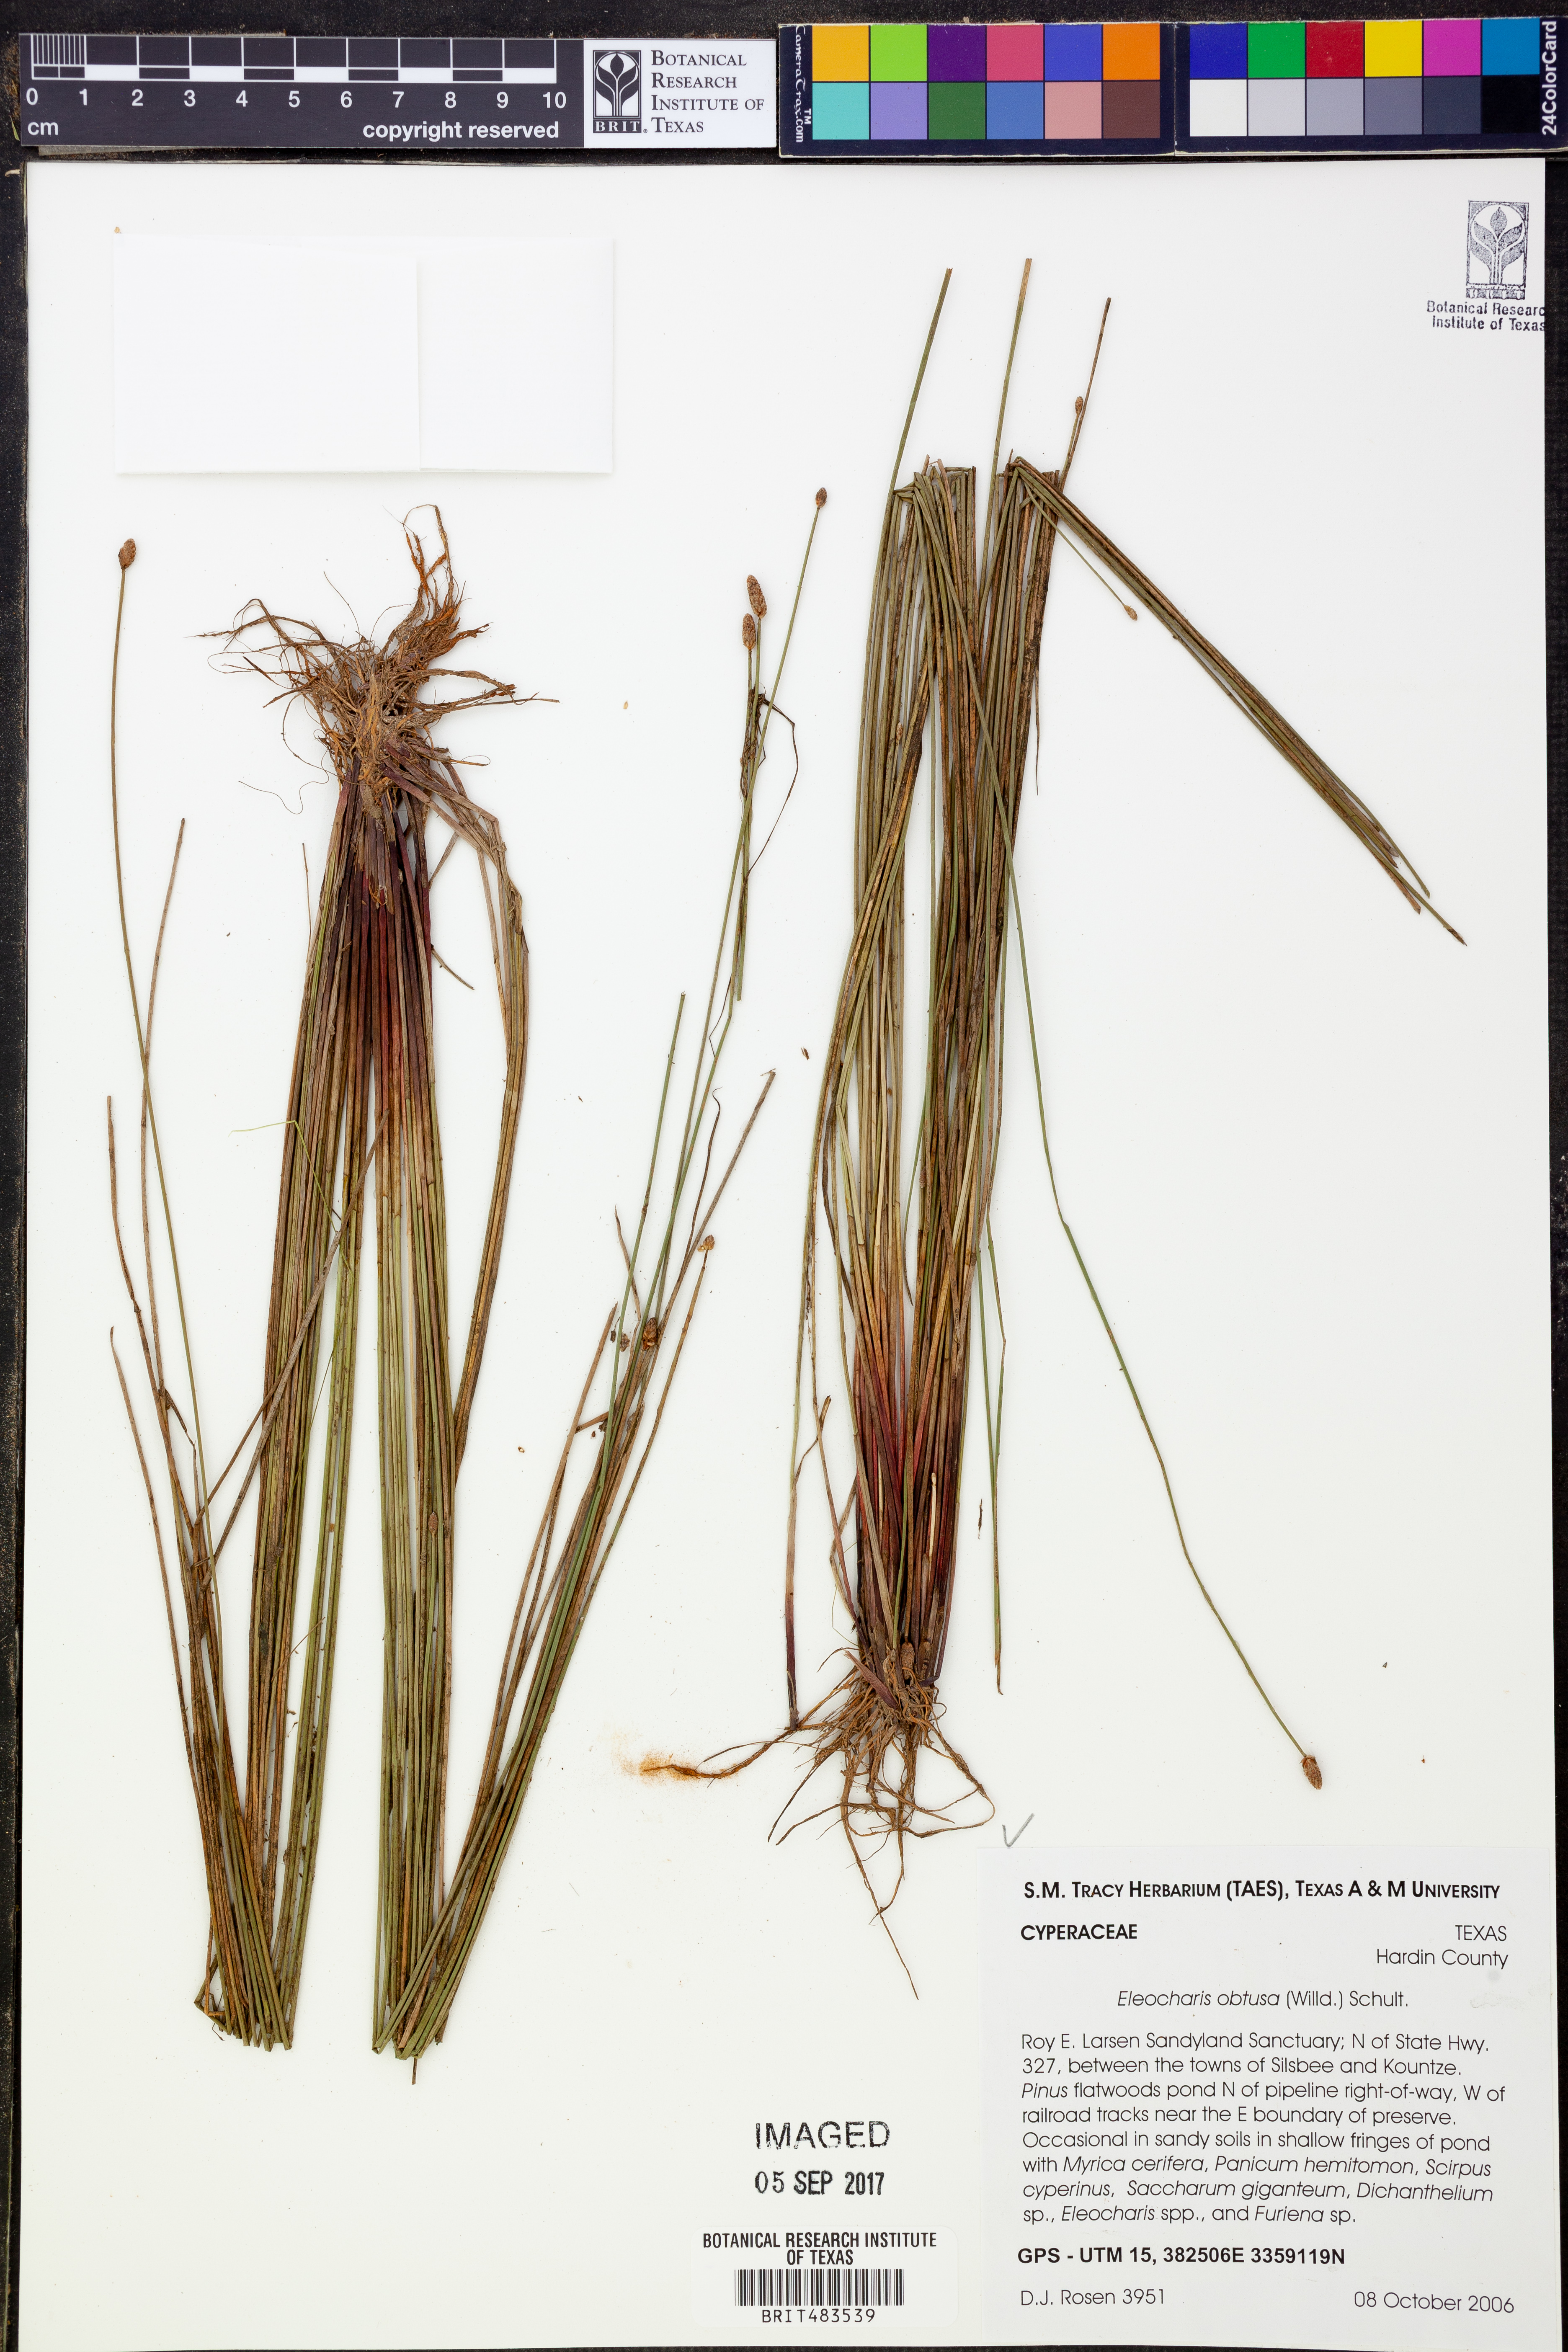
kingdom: Plantae
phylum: Tracheophyta
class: Liliopsida
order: Poales
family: Cyperaceae
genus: Eleocharis
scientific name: Eleocharis obtusa
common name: Blunt spikerush
